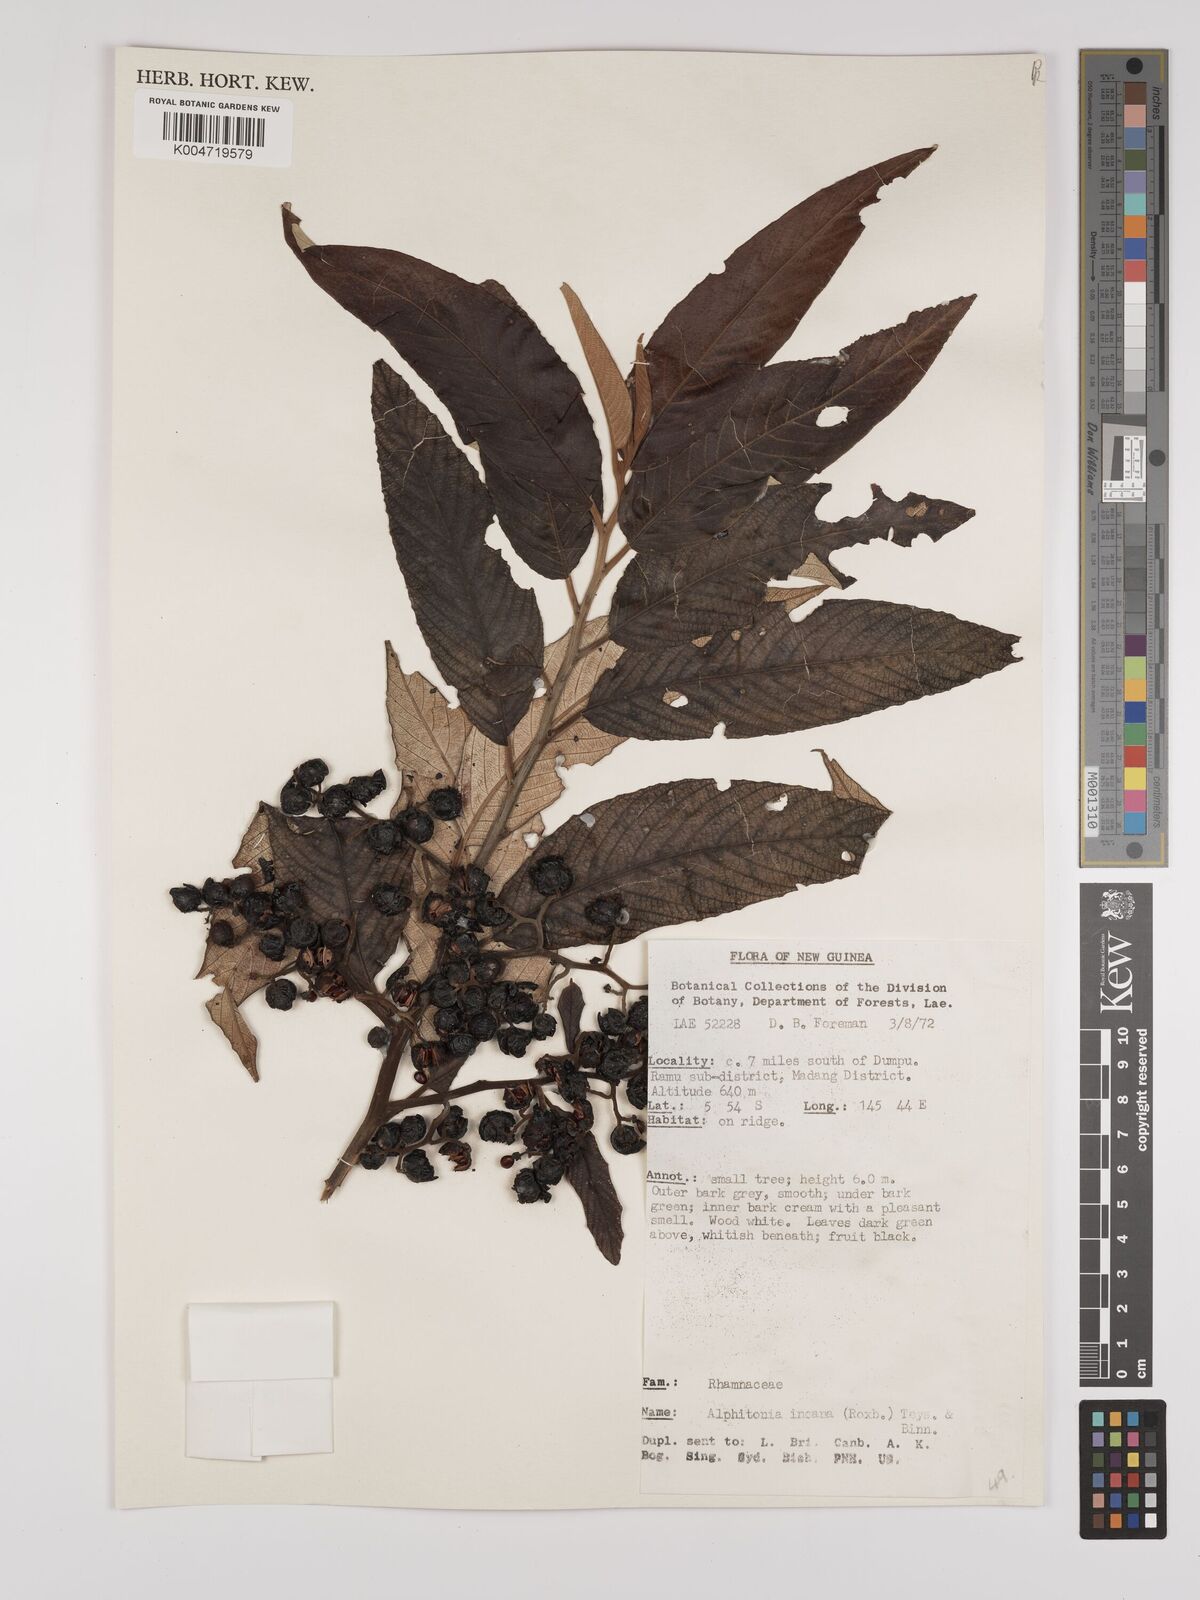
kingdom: Plantae
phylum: Tracheophyta
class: Magnoliopsida
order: Rosales
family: Rhamnaceae
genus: Alphitonia
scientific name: Alphitonia incana
